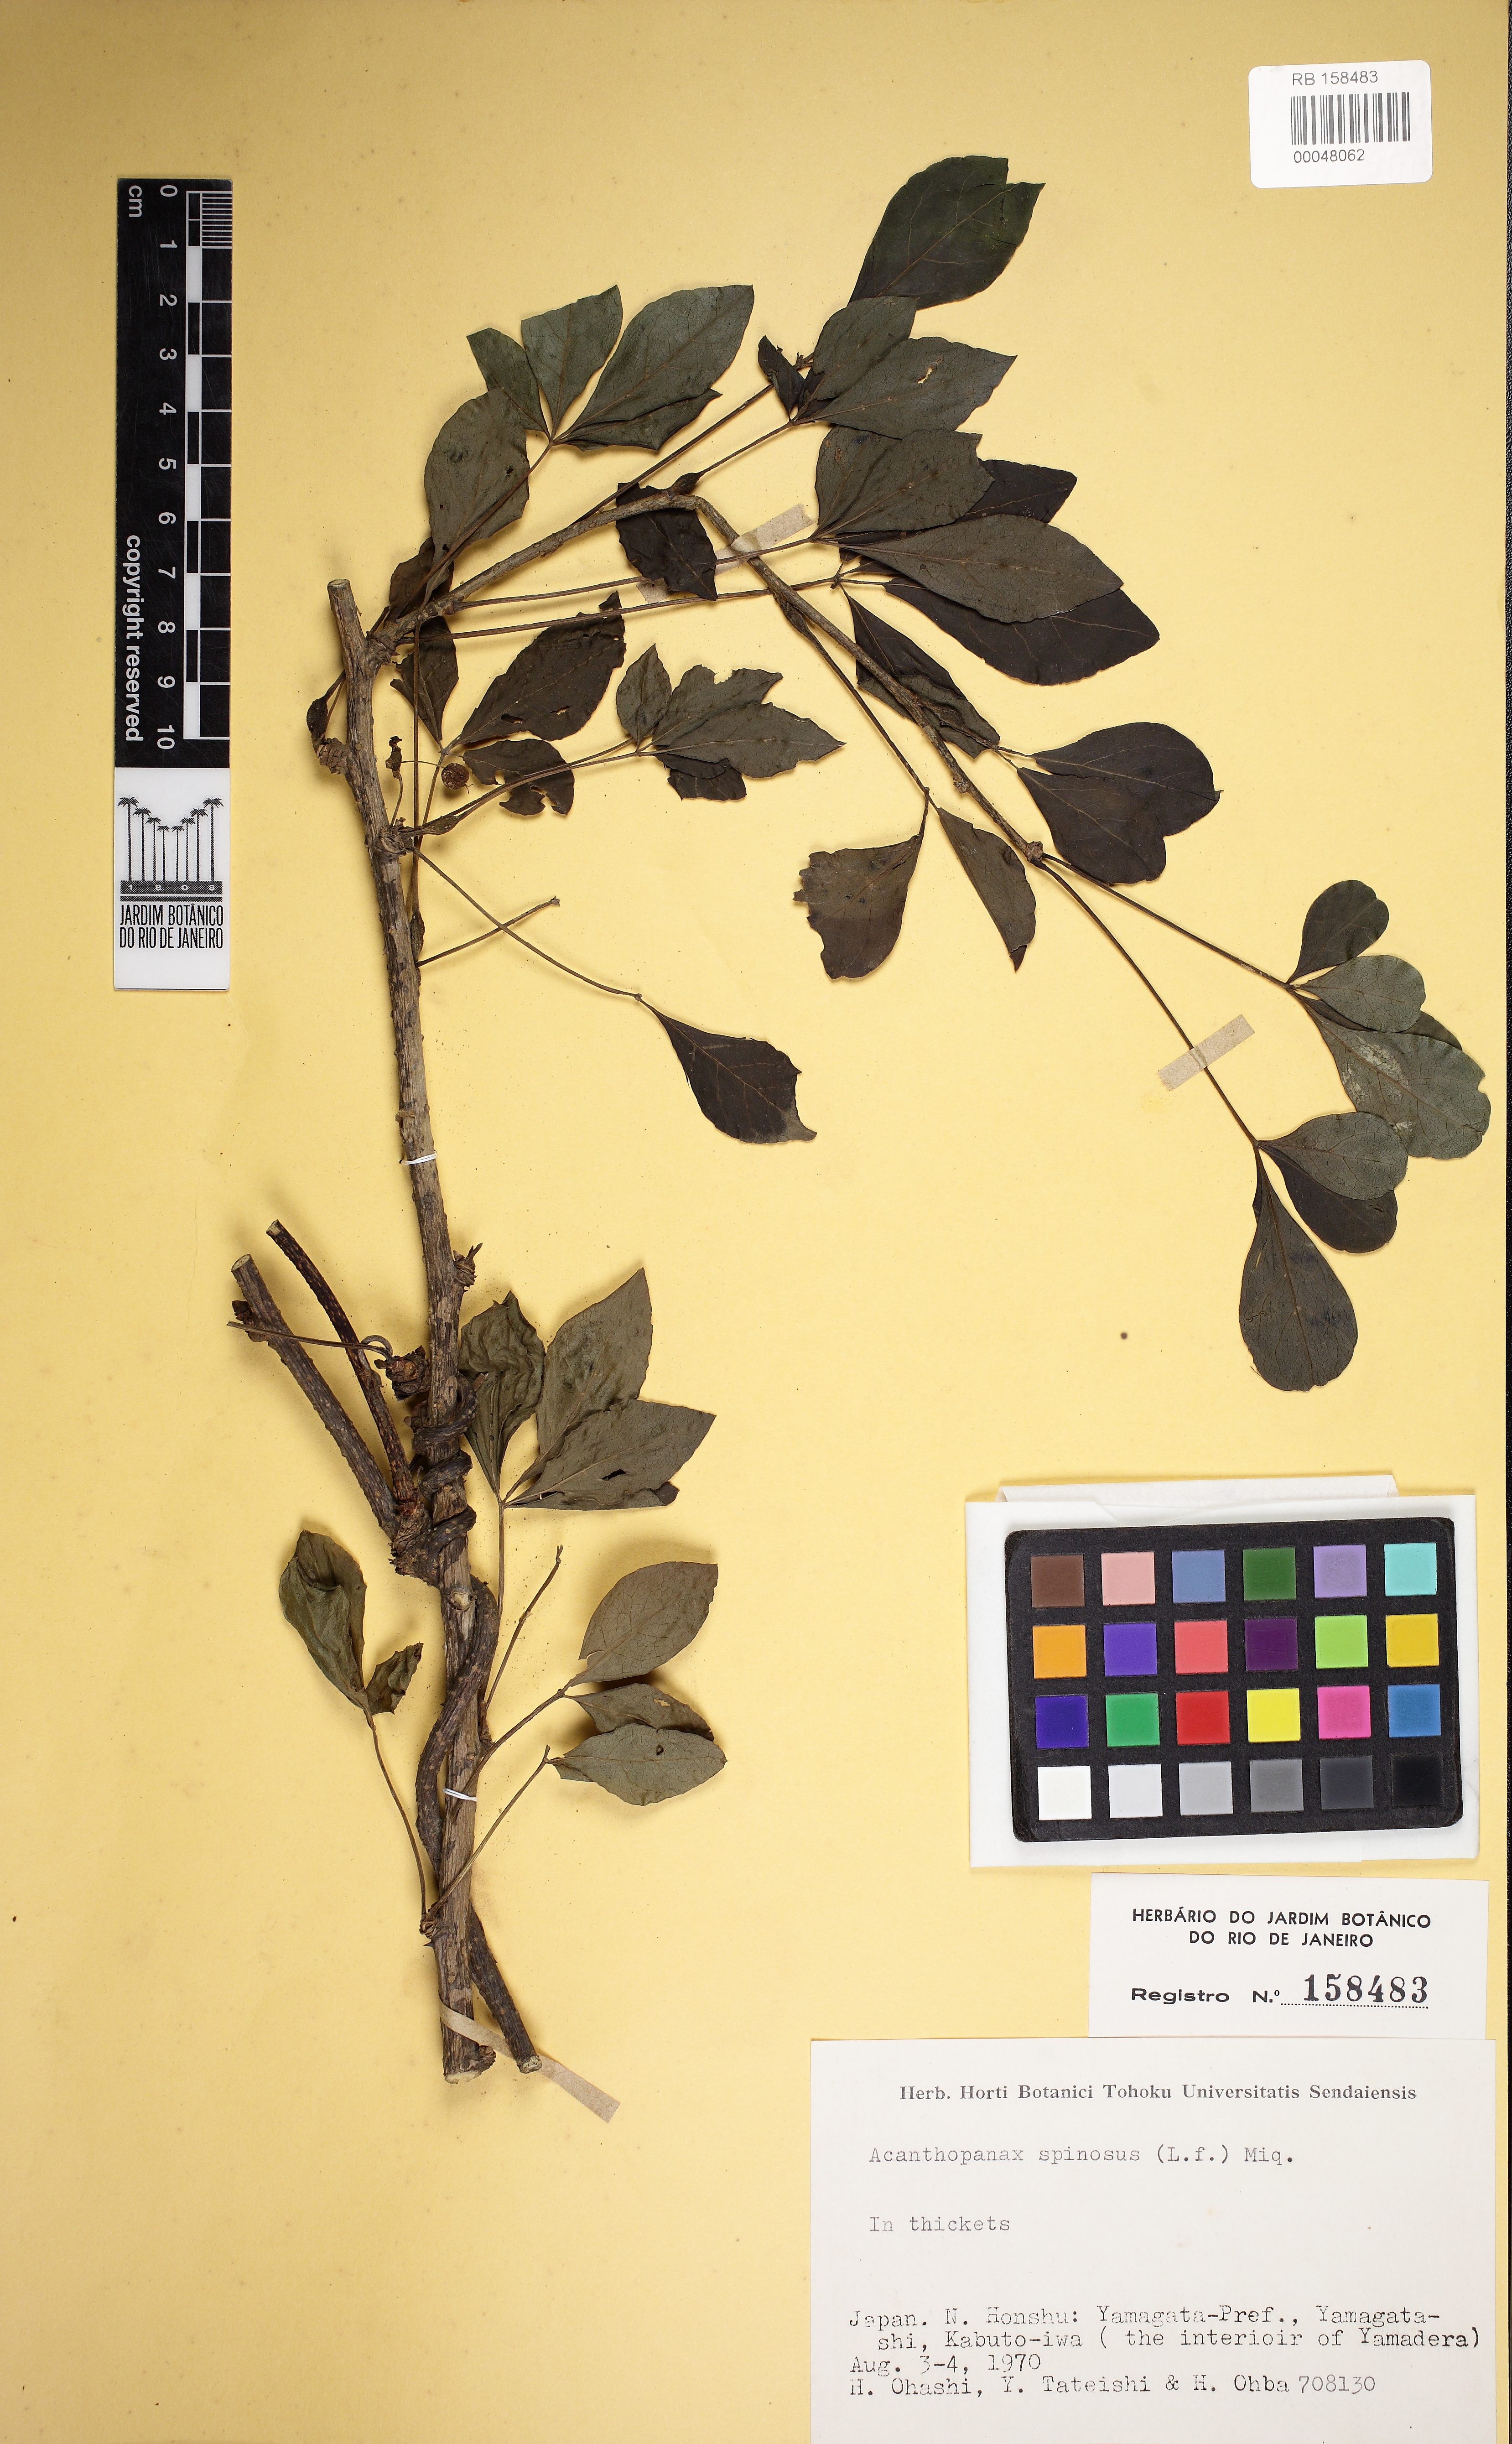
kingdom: Plantae
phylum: Tracheophyta
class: Magnoliopsida
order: Apiales
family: Araliaceae
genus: Eleutherococcus
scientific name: Eleutherococcus spinosus
